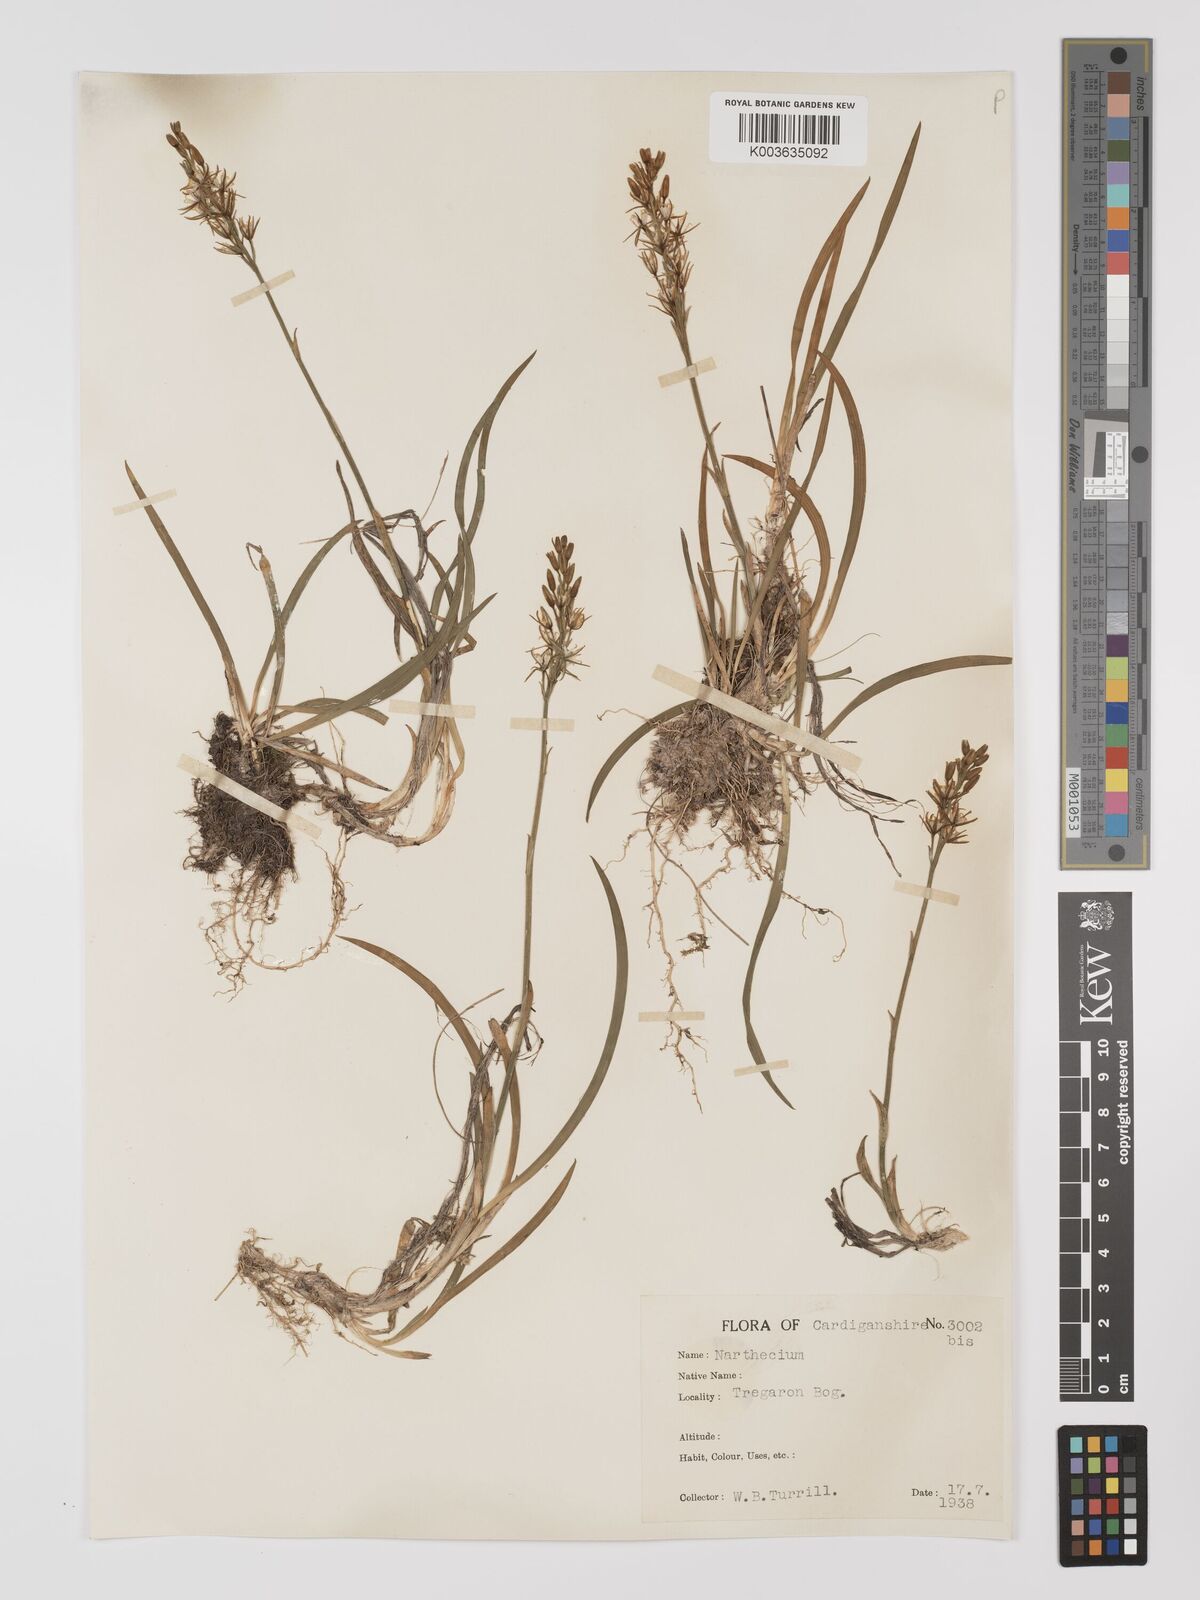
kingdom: Plantae
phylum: Tracheophyta
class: Liliopsida
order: Dioscoreales
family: Nartheciaceae
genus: Narthecium
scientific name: Narthecium
